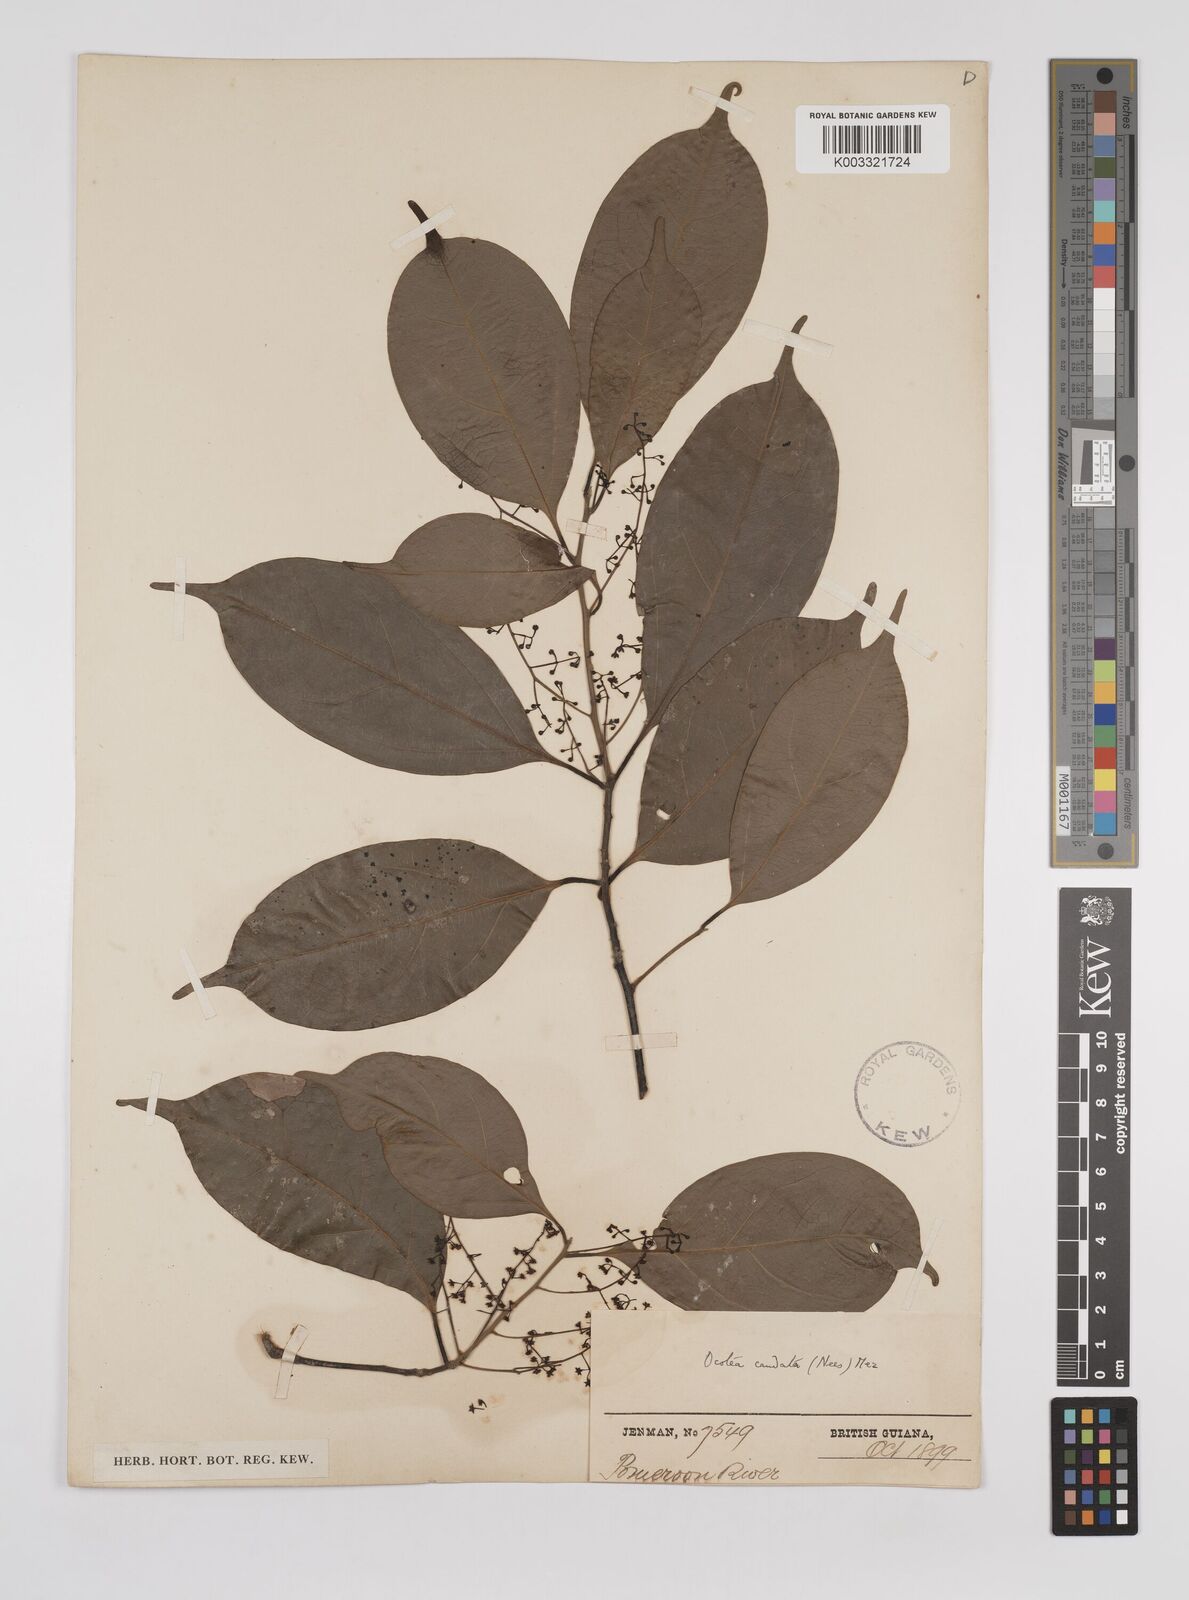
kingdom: Plantae
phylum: Tracheophyta
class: Magnoliopsida
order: Laurales
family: Lauraceae
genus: Ocotea
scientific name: Ocotea leptobotra
